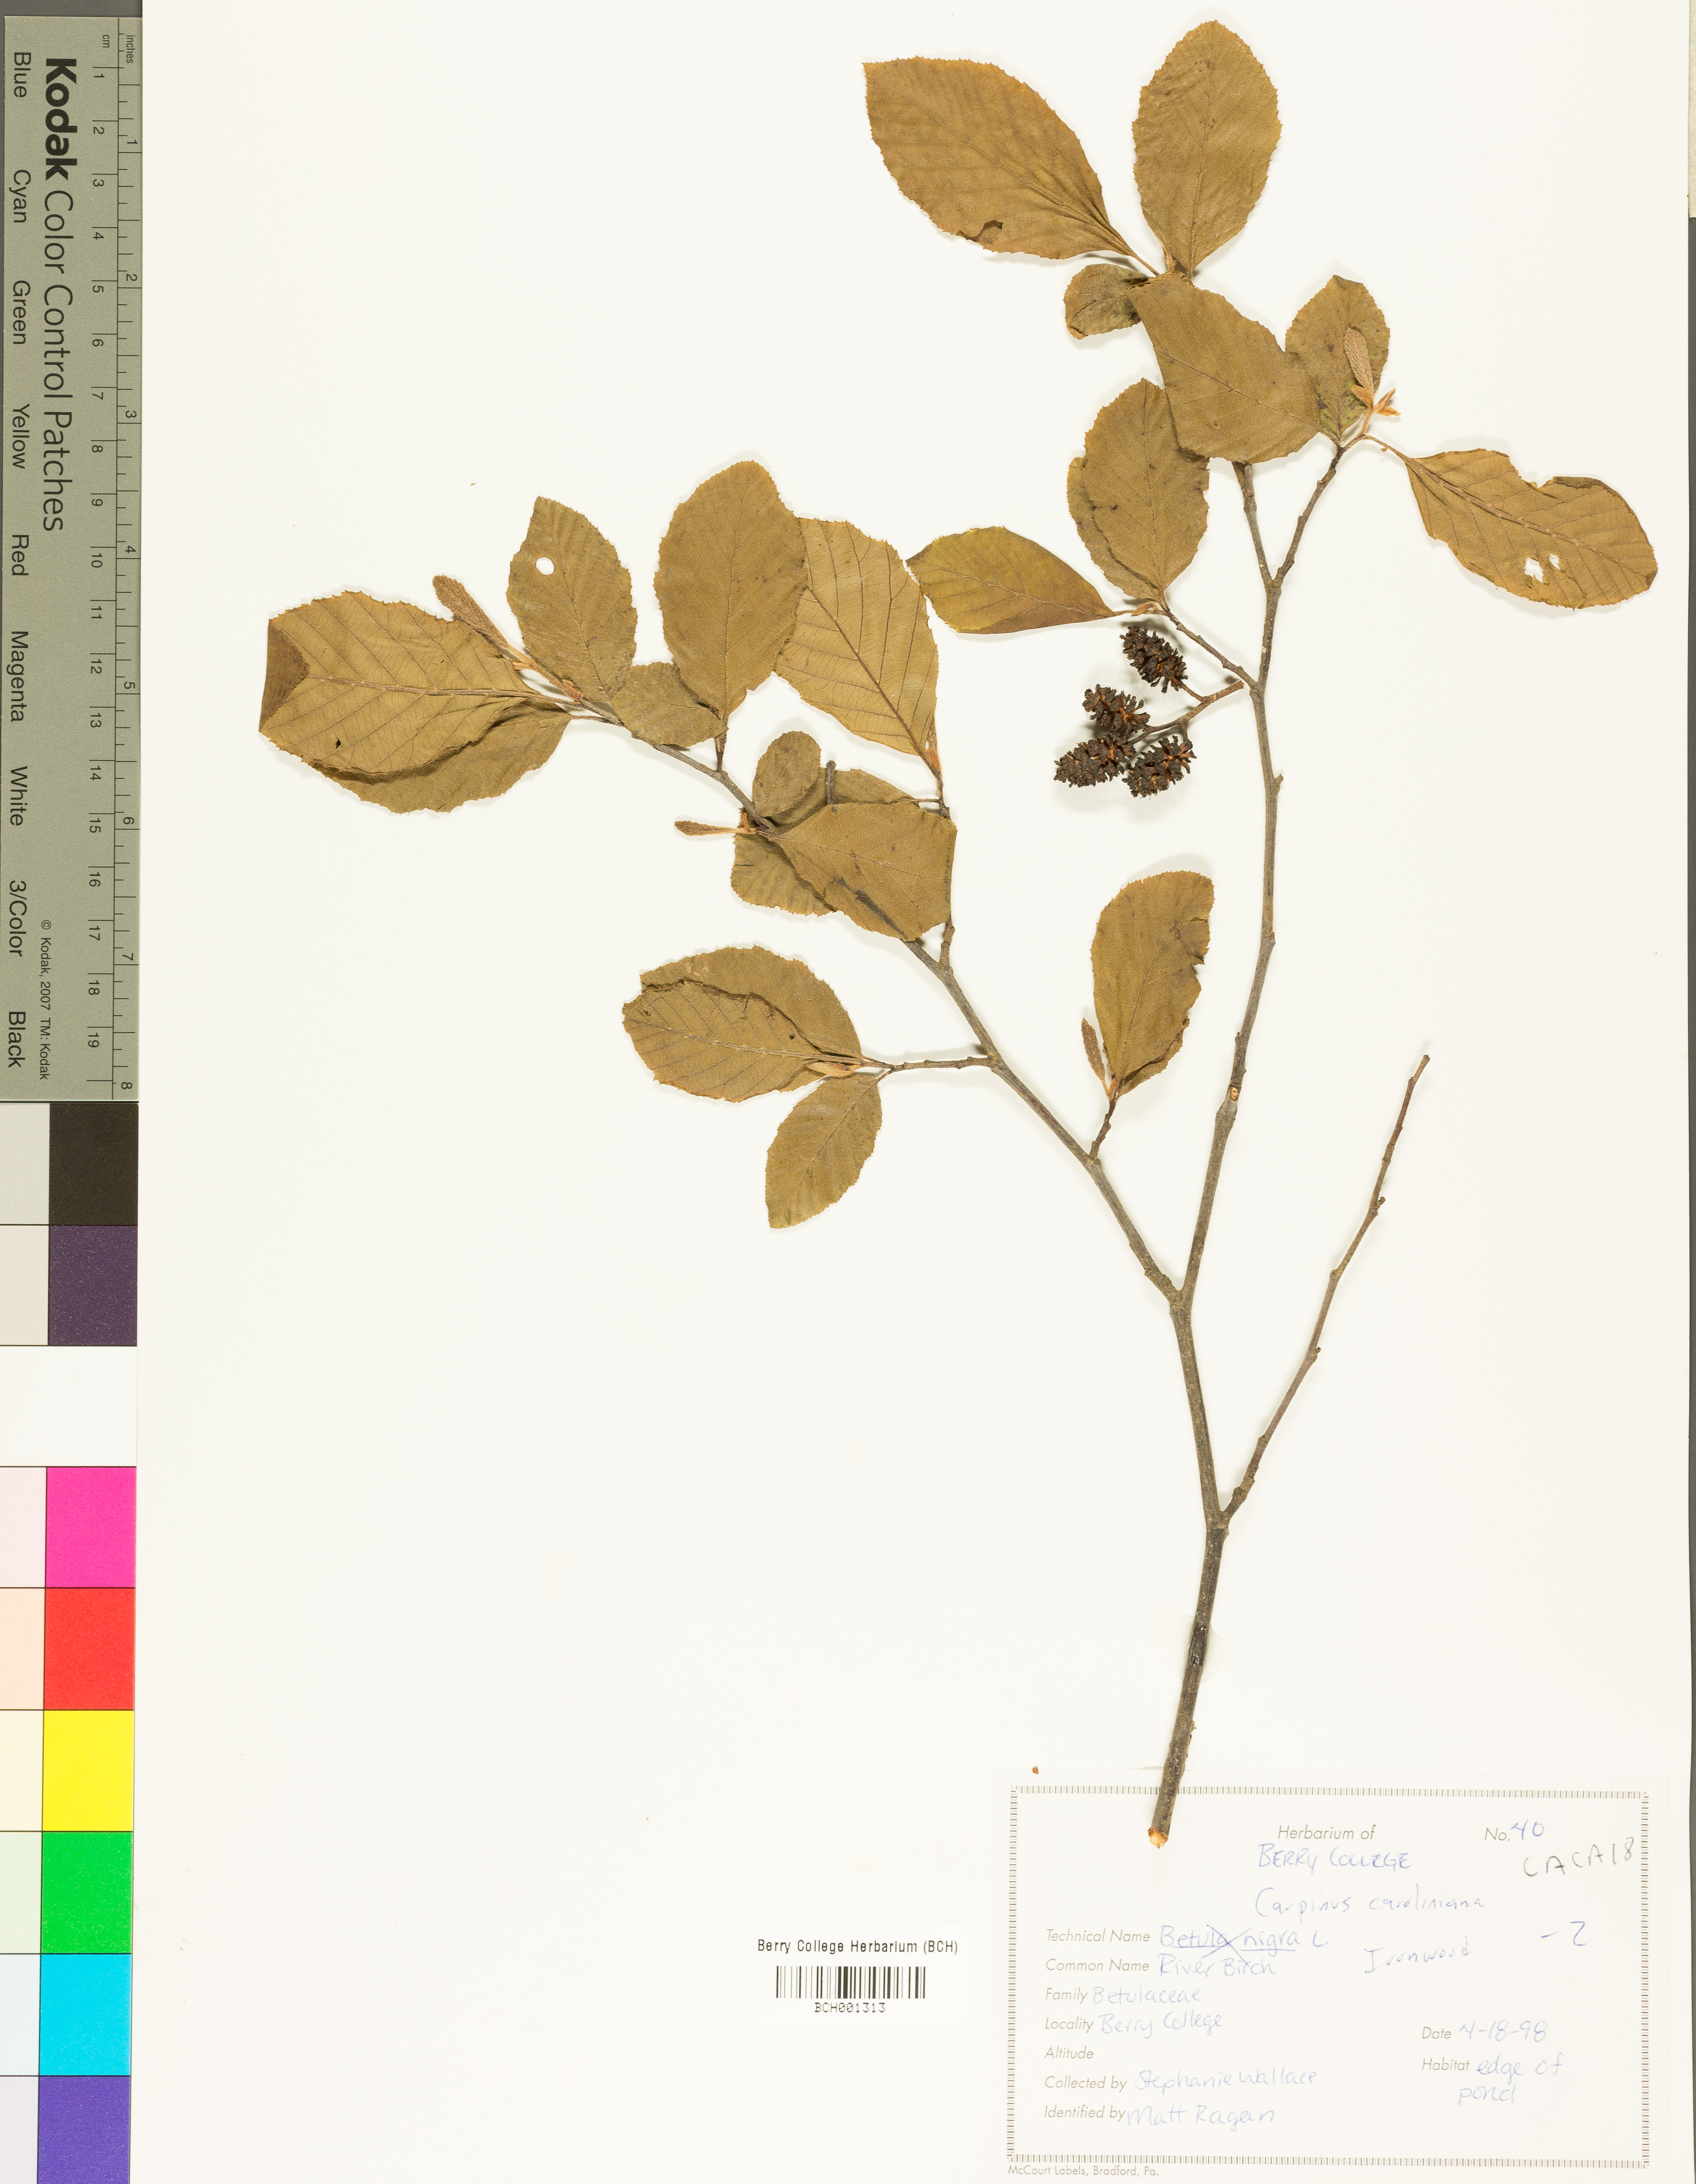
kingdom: Plantae
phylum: Tracheophyta
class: Magnoliopsida
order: Fagales
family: Betulaceae
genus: Carpinus
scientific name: Carpinus caroliniana
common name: American hornbeam
